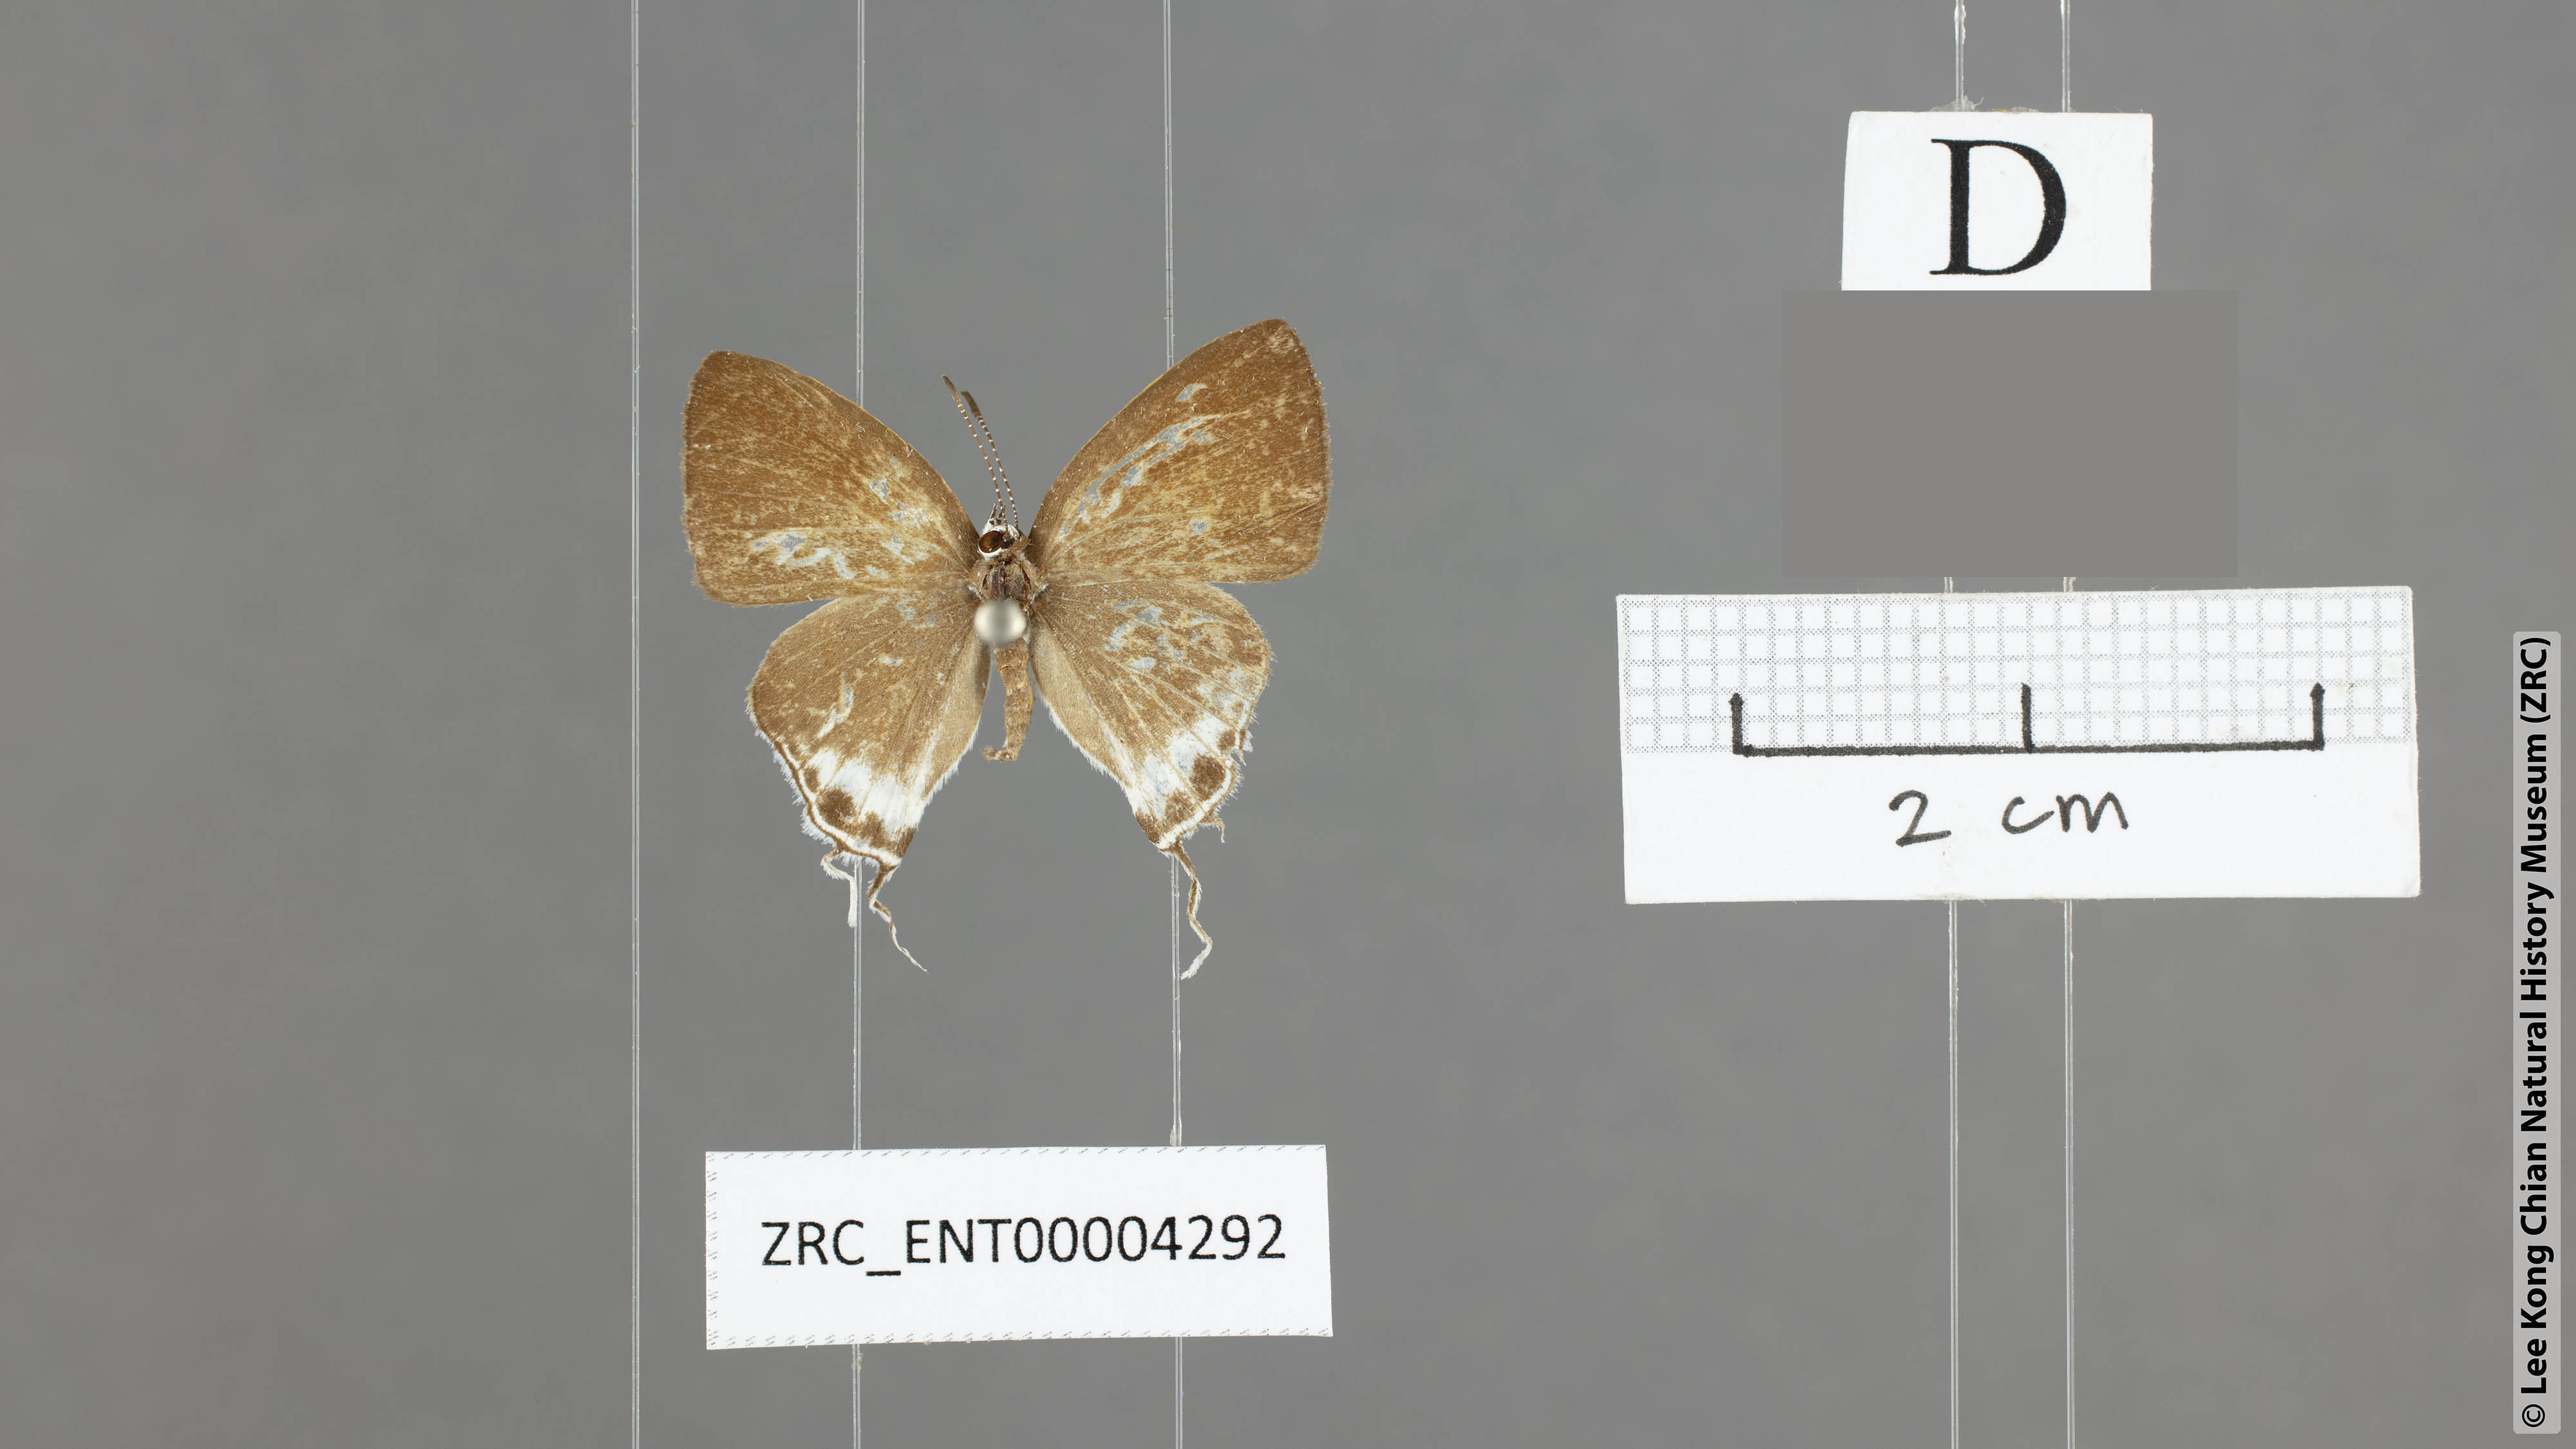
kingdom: Animalia
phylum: Arthropoda
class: Insecta
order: Lepidoptera
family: Lycaenidae
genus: Hypolycaena
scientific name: Hypolycaena amabilis
